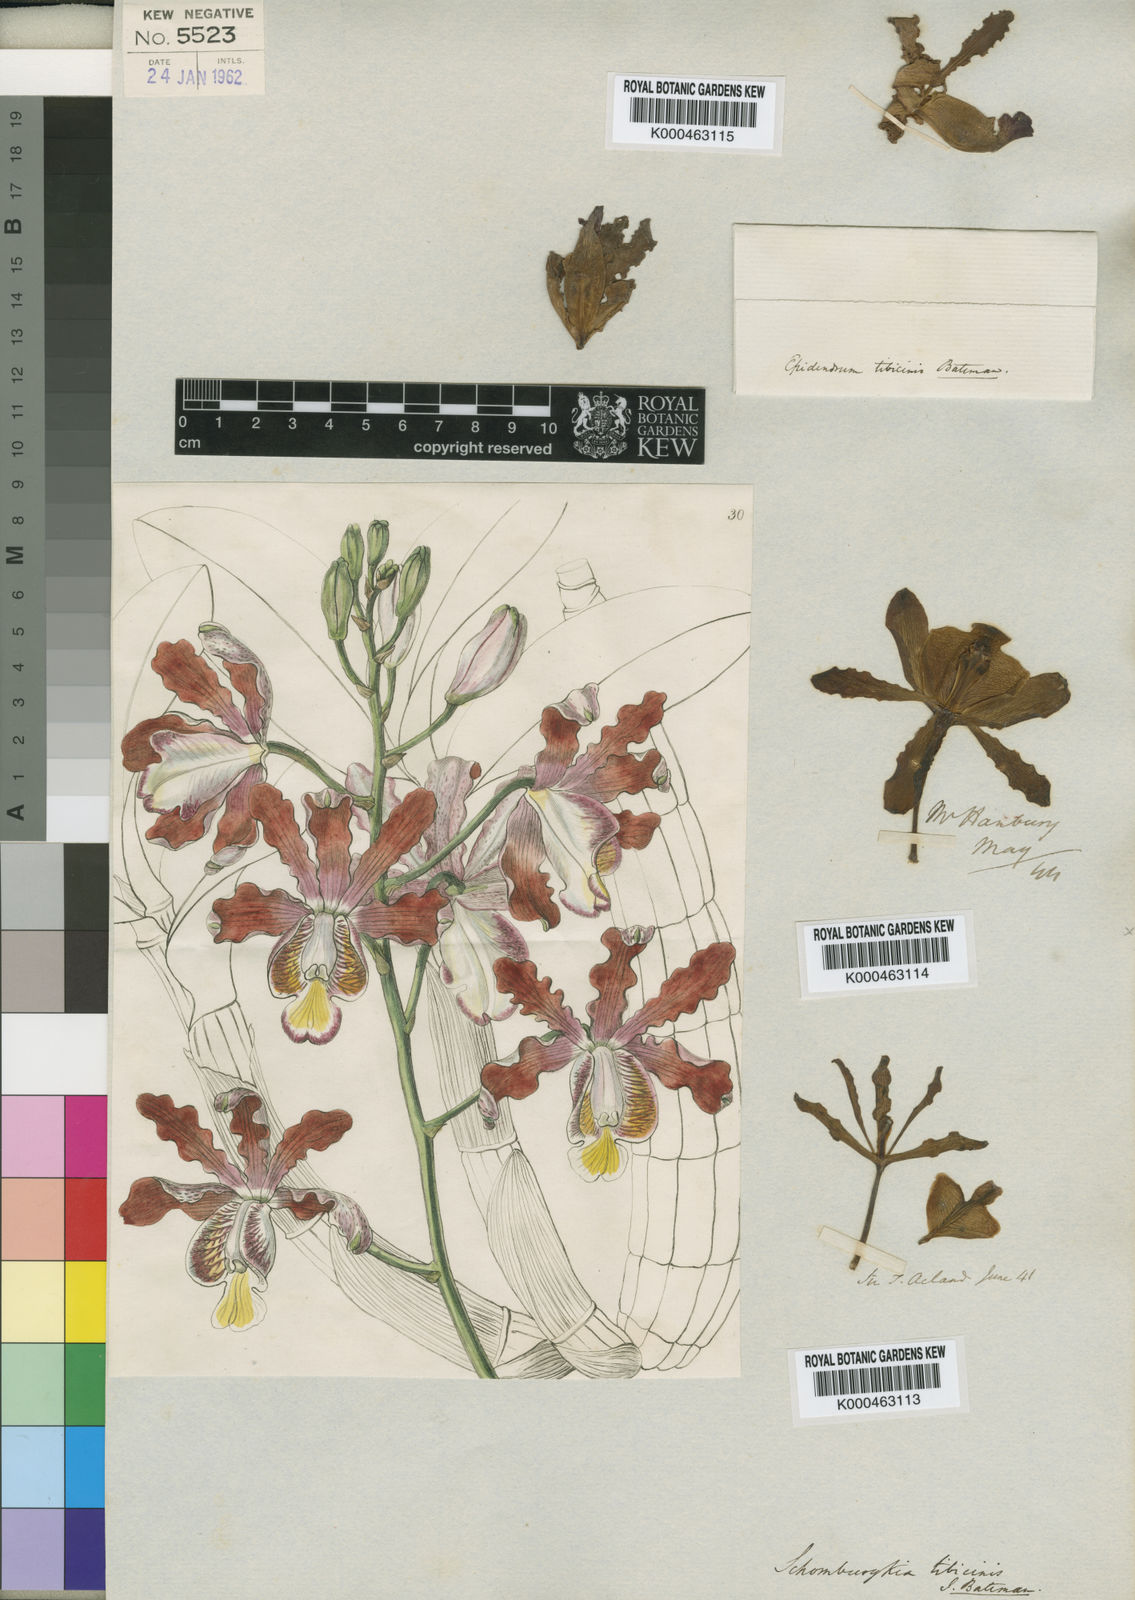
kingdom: Plantae
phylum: Tracheophyta
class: Liliopsida
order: Asparagales
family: Orchidaceae
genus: Laelia
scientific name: Laelia
